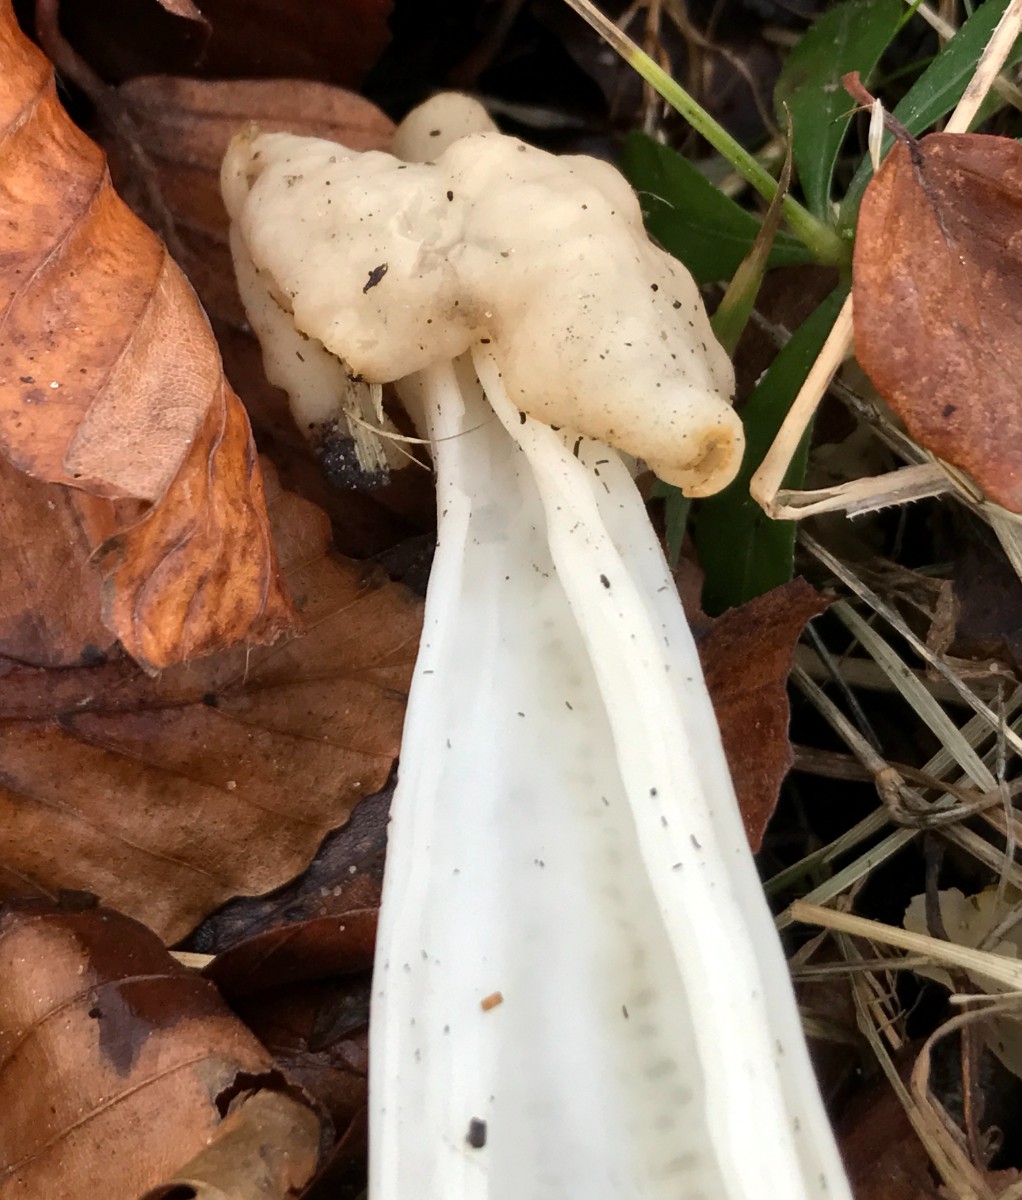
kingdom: Fungi
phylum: Ascomycota
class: Pezizomycetes
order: Pezizales
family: Helvellaceae
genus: Helvella
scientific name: Helvella crispa
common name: kruset foldhat
